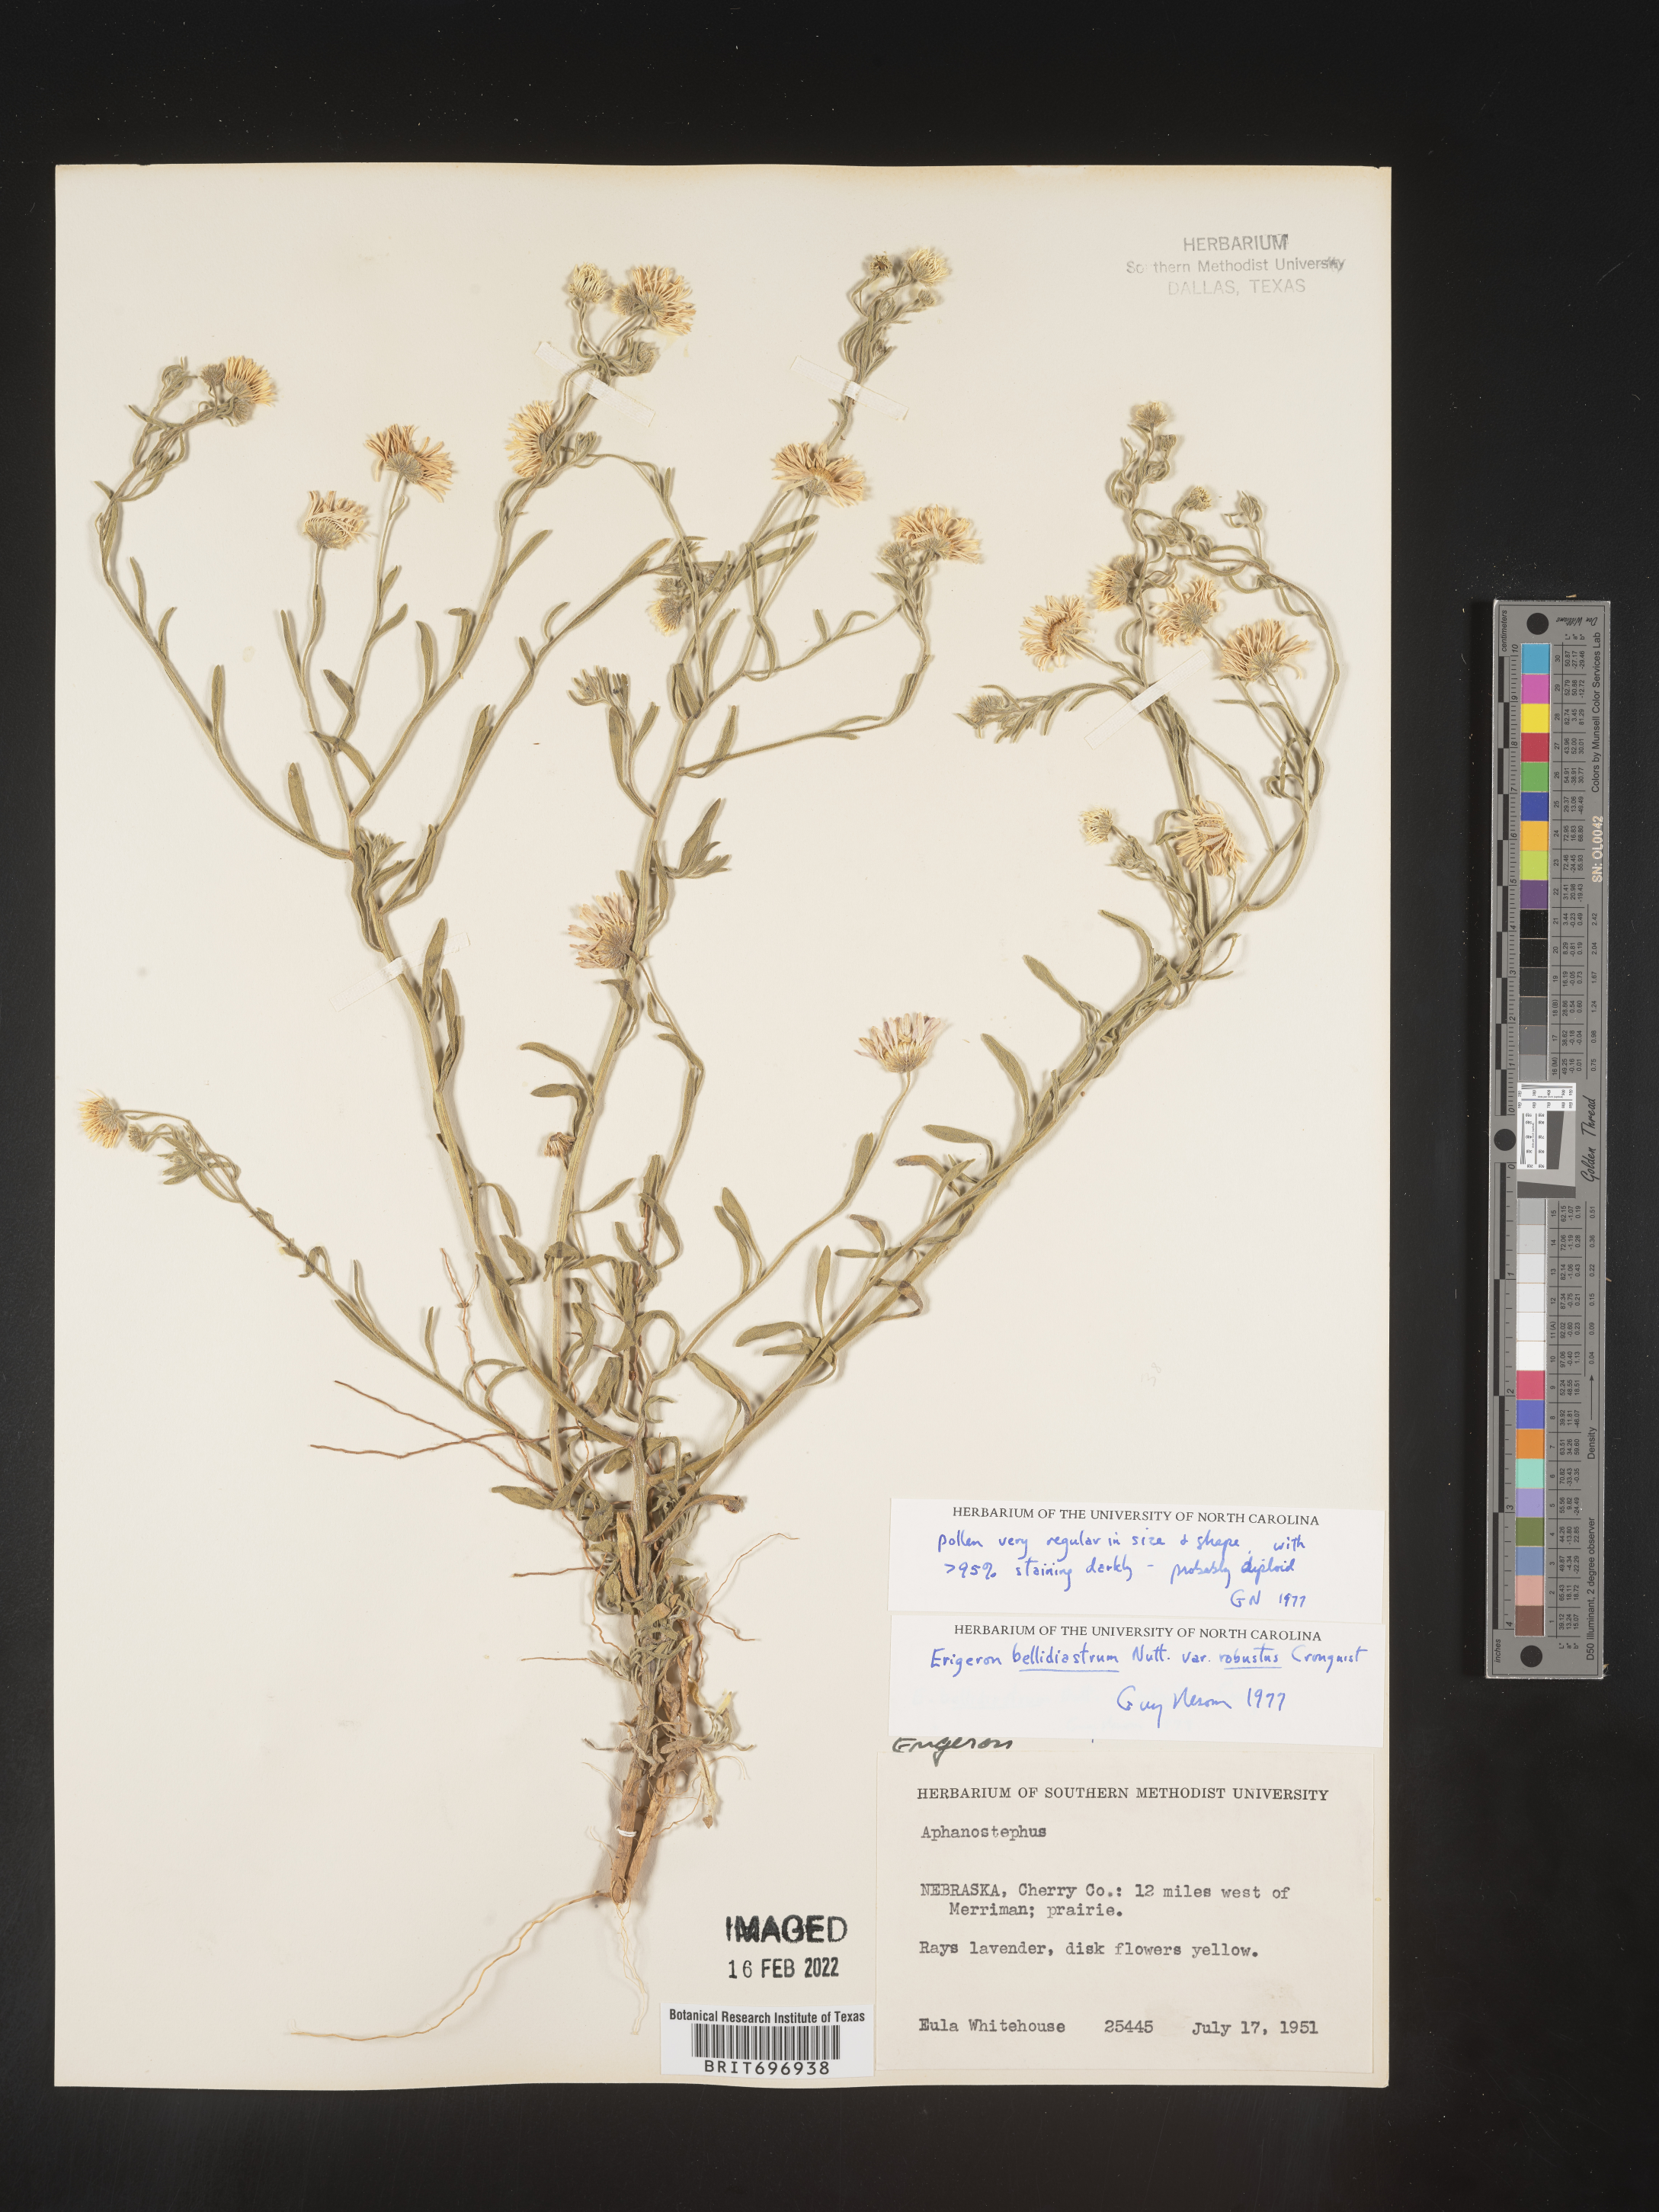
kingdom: Plantae
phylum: Tracheophyta
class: Magnoliopsida
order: Asterales
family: Asteraceae
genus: Erigeron
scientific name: Erigeron bellidiastrum
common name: Sand fleabane
